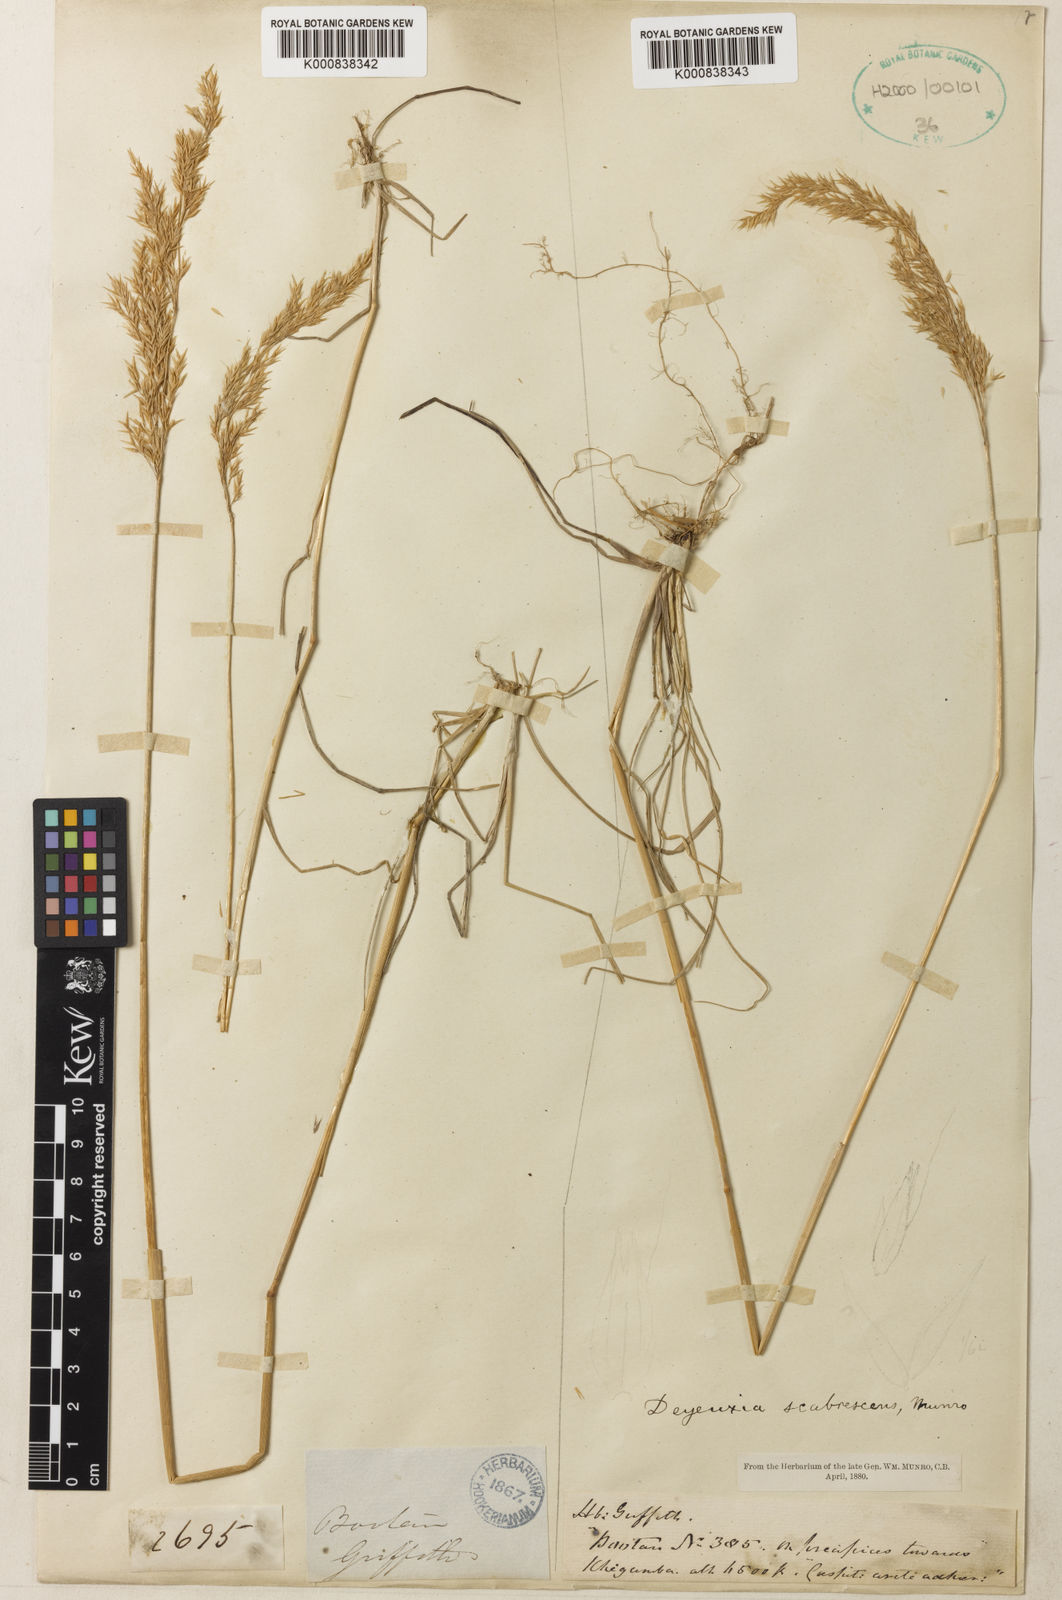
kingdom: Plantae
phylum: Tracheophyta
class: Liliopsida
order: Poales
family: Poaceae
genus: Calamagrostis
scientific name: Calamagrostis scabrescens
